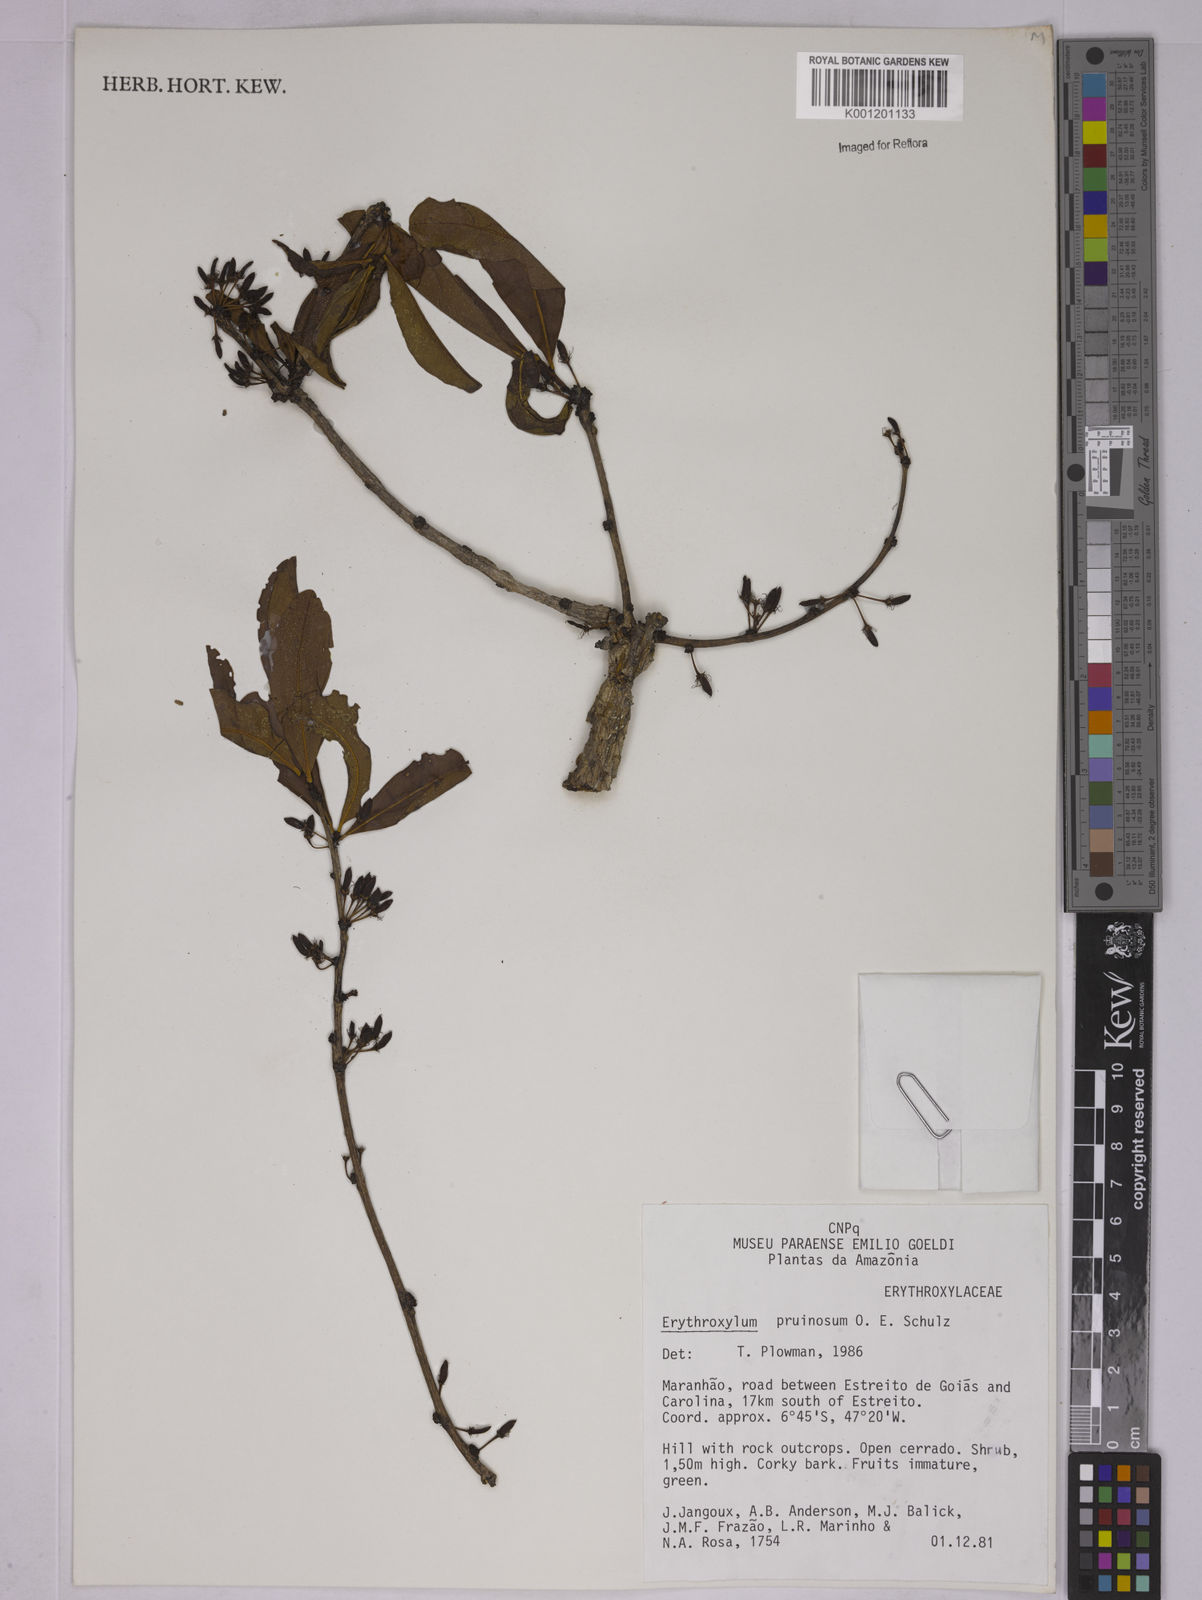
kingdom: Plantae
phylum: Tracheophyta
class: Magnoliopsida
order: Malpighiales
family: Erythroxylaceae
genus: Erythroxylum
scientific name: Erythroxylum pruinosum
